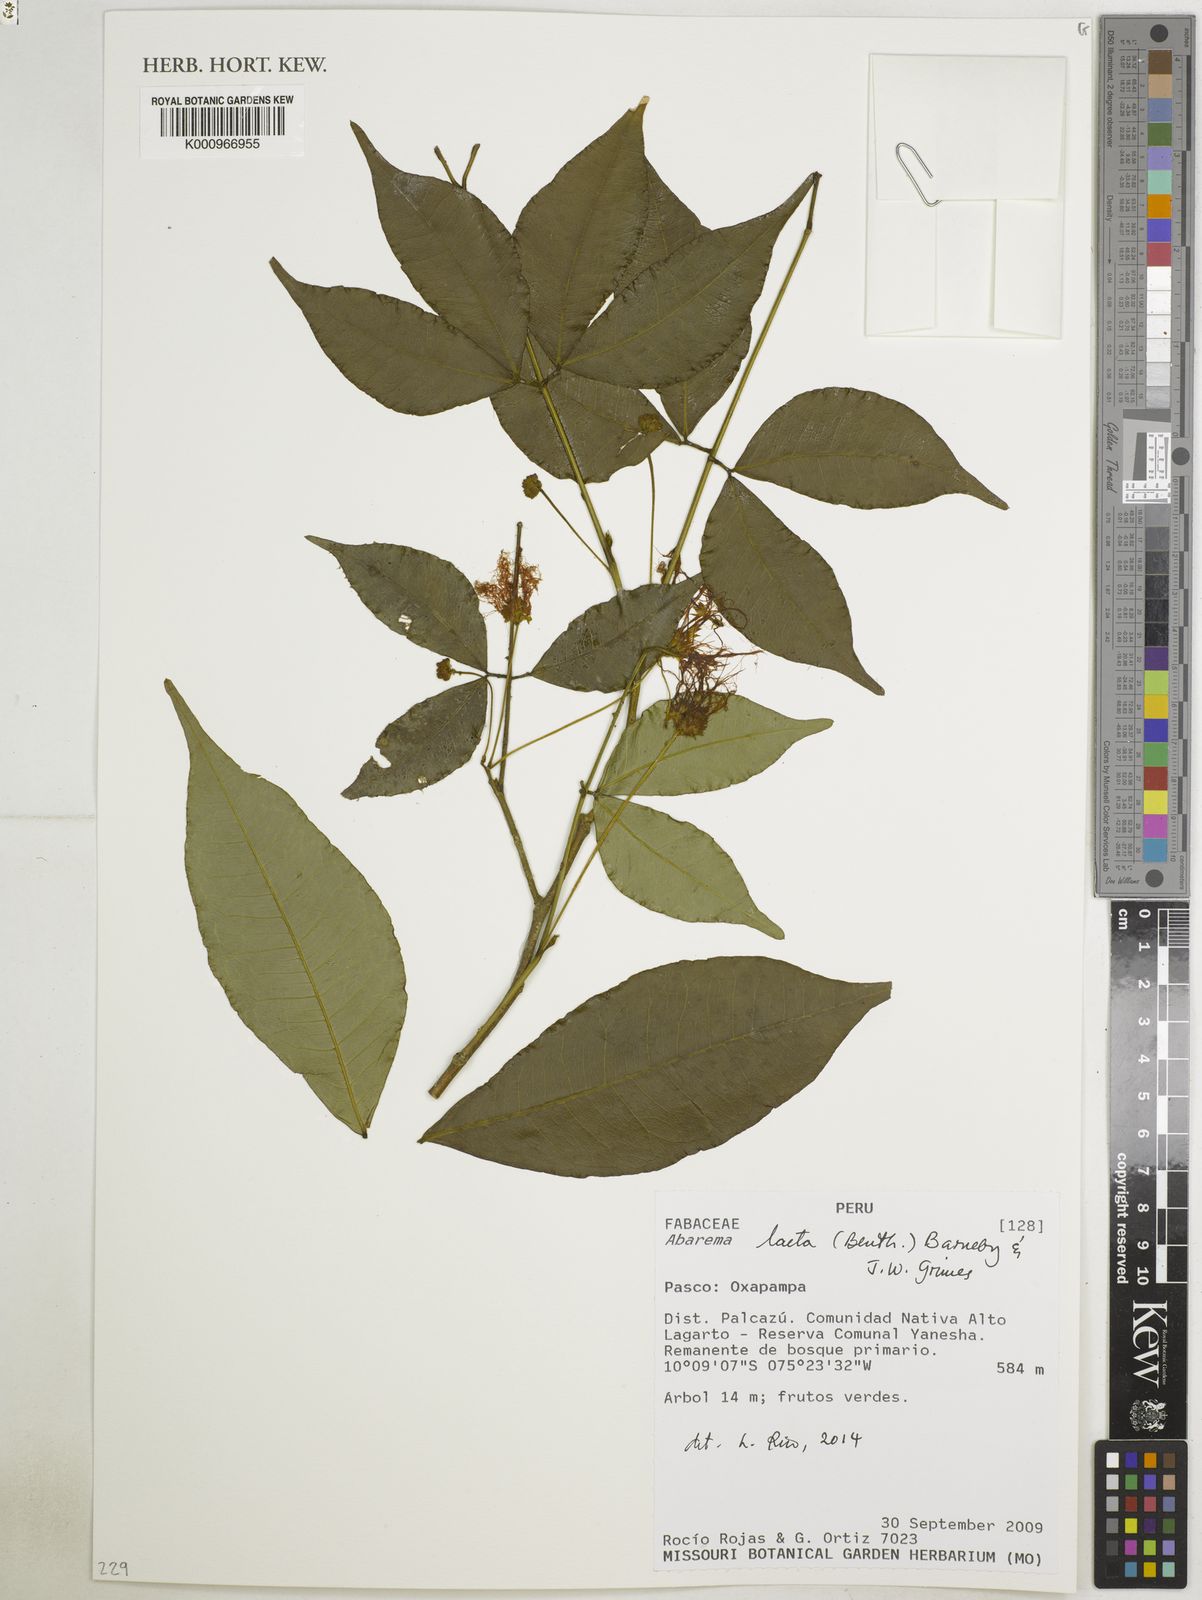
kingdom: Plantae
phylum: Tracheophyta
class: Magnoliopsida
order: Fabales
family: Fabaceae
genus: Jupunba
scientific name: Jupunba laeta
